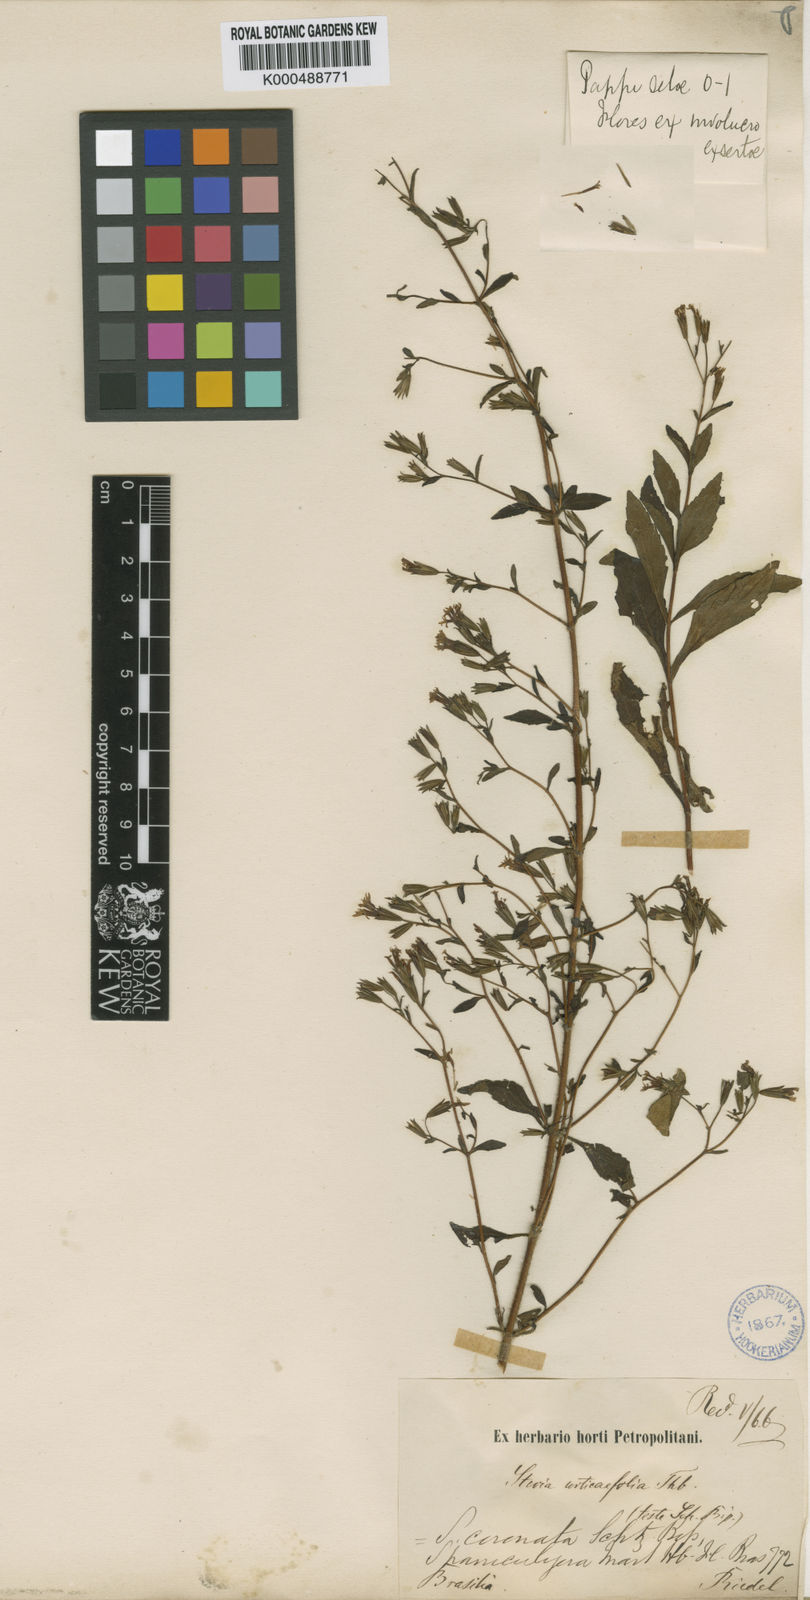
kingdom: Plantae
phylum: Tracheophyta
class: Magnoliopsida
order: Asterales
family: Asteraceae
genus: Stevia
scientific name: Stevia urticifolia
